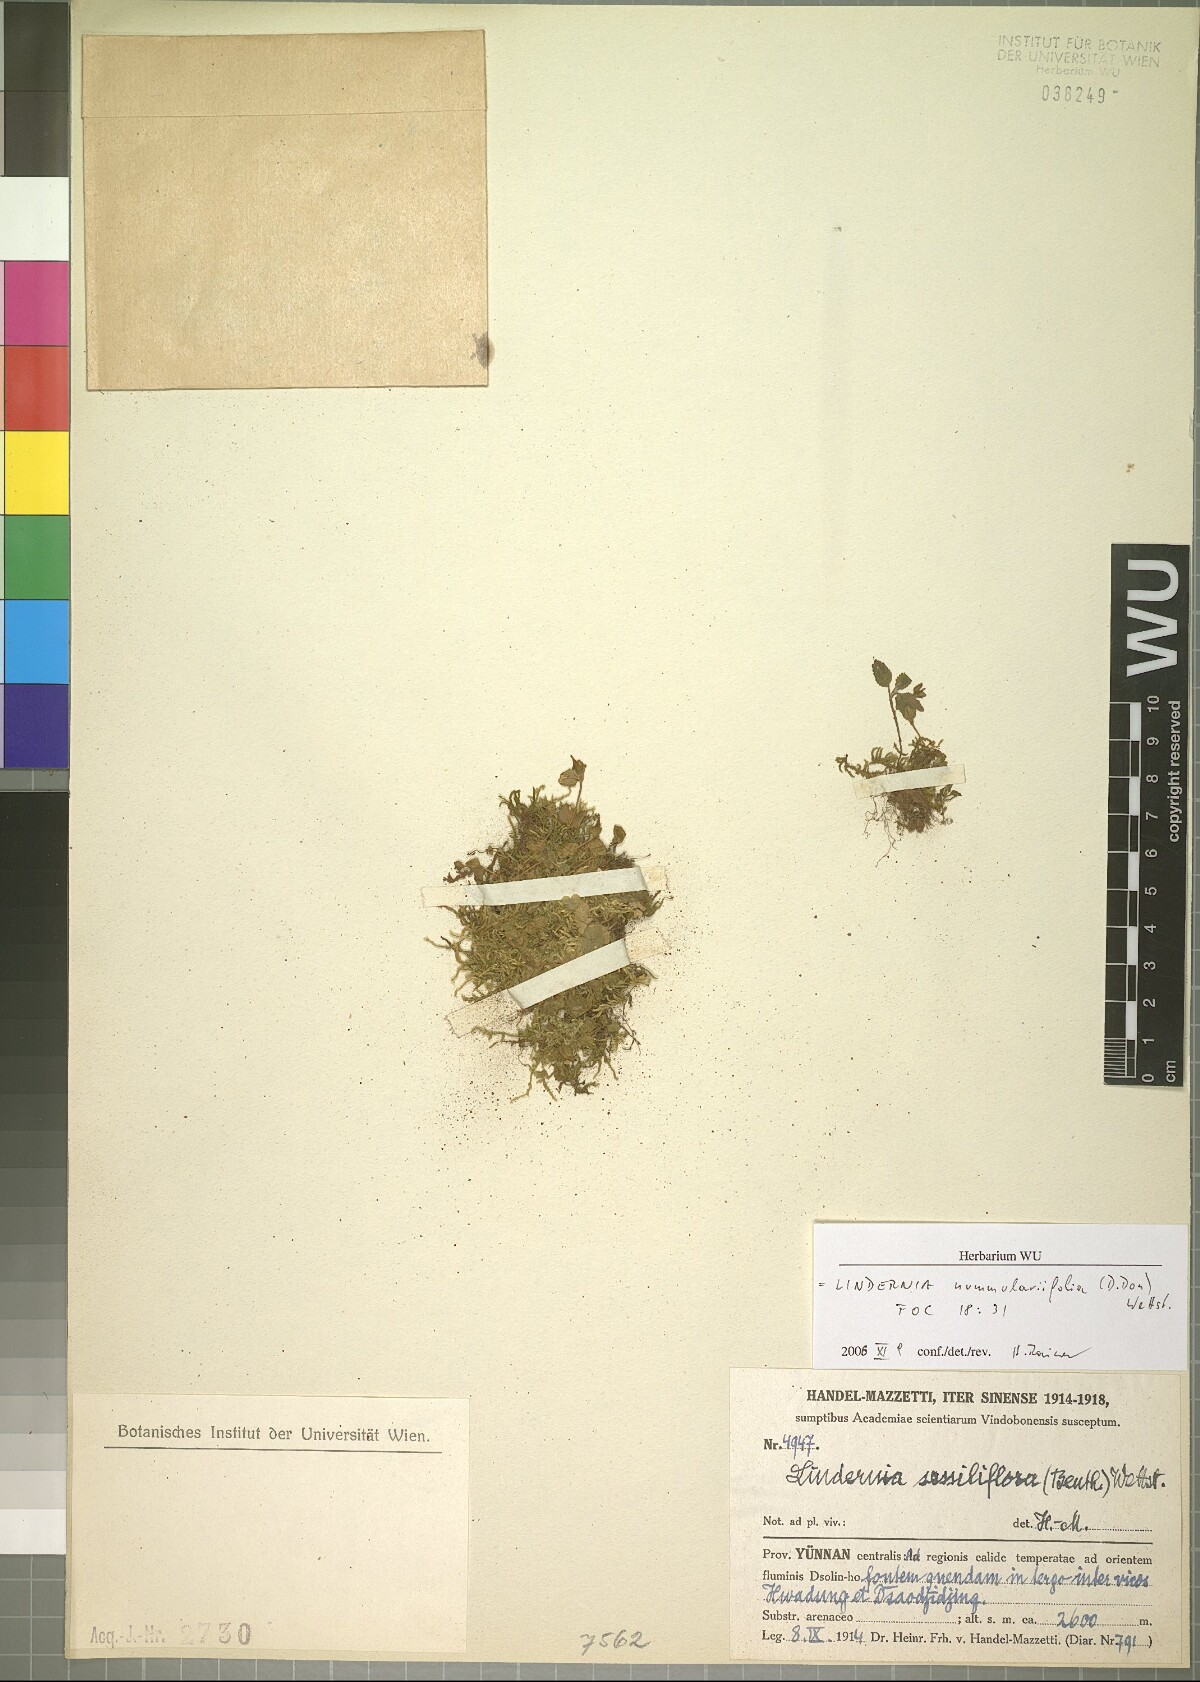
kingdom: Plantae
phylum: Tracheophyta
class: Magnoliopsida
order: Lamiales
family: Linderniaceae
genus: Craterostigma
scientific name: Craterostigma nummulariifolium
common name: False pimpernel
